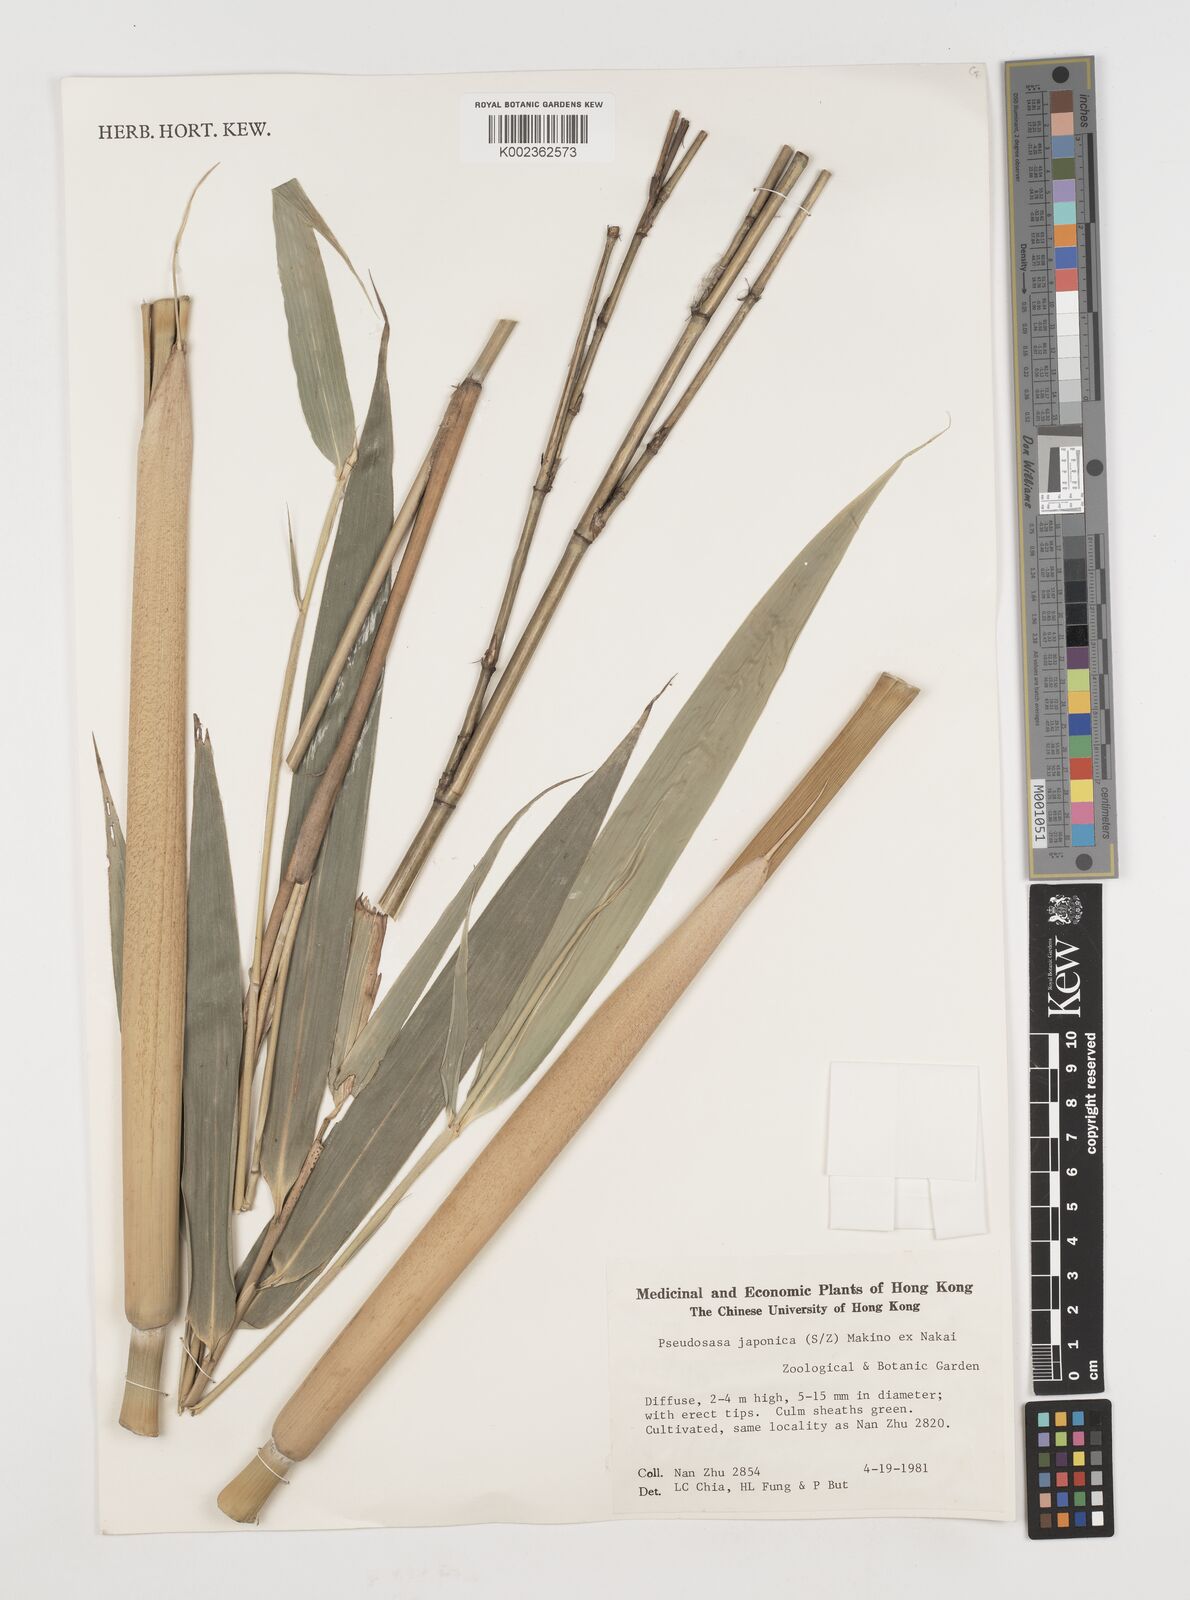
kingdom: Plantae
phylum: Tracheophyta
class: Liliopsida
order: Poales
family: Poaceae
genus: Pseudosasa
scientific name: Pseudosasa japonica
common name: Arrow bamboo
